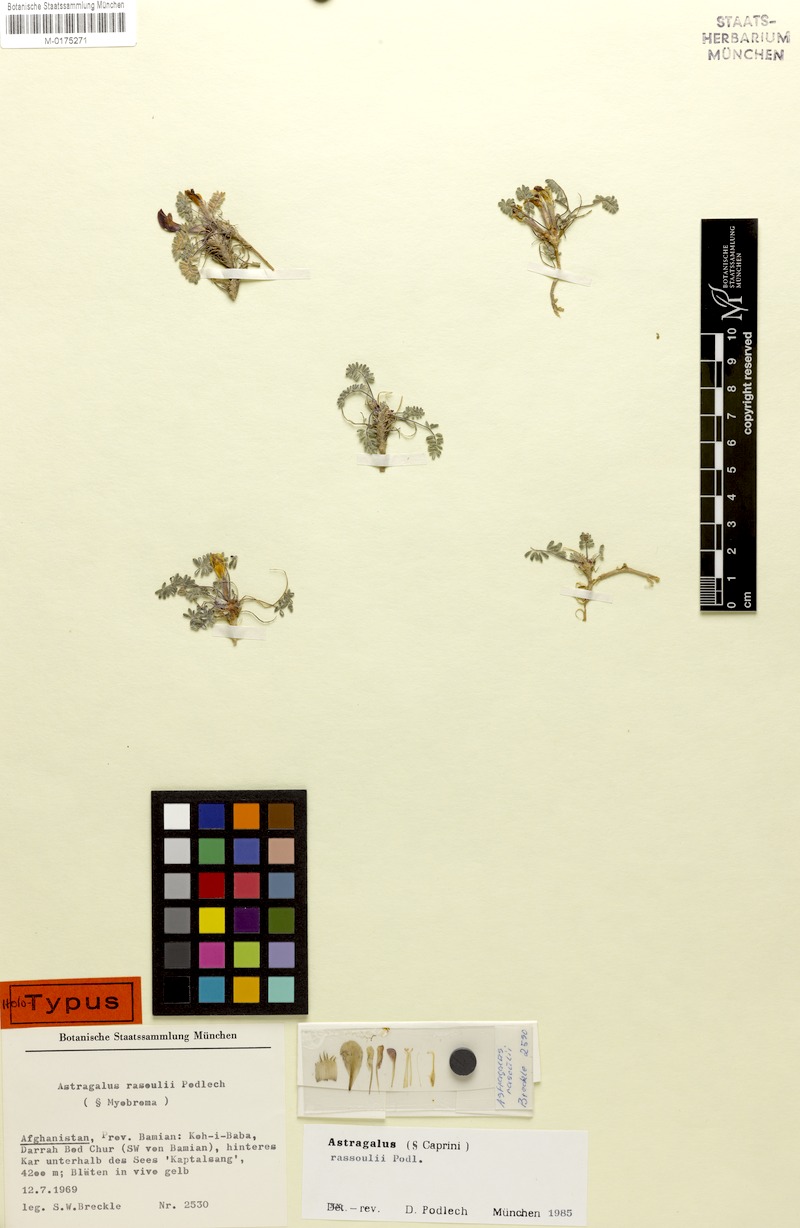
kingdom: Plantae
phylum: Tracheophyta
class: Magnoliopsida
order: Fabales
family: Fabaceae
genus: Astragalus
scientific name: Astragalus rassoulii
